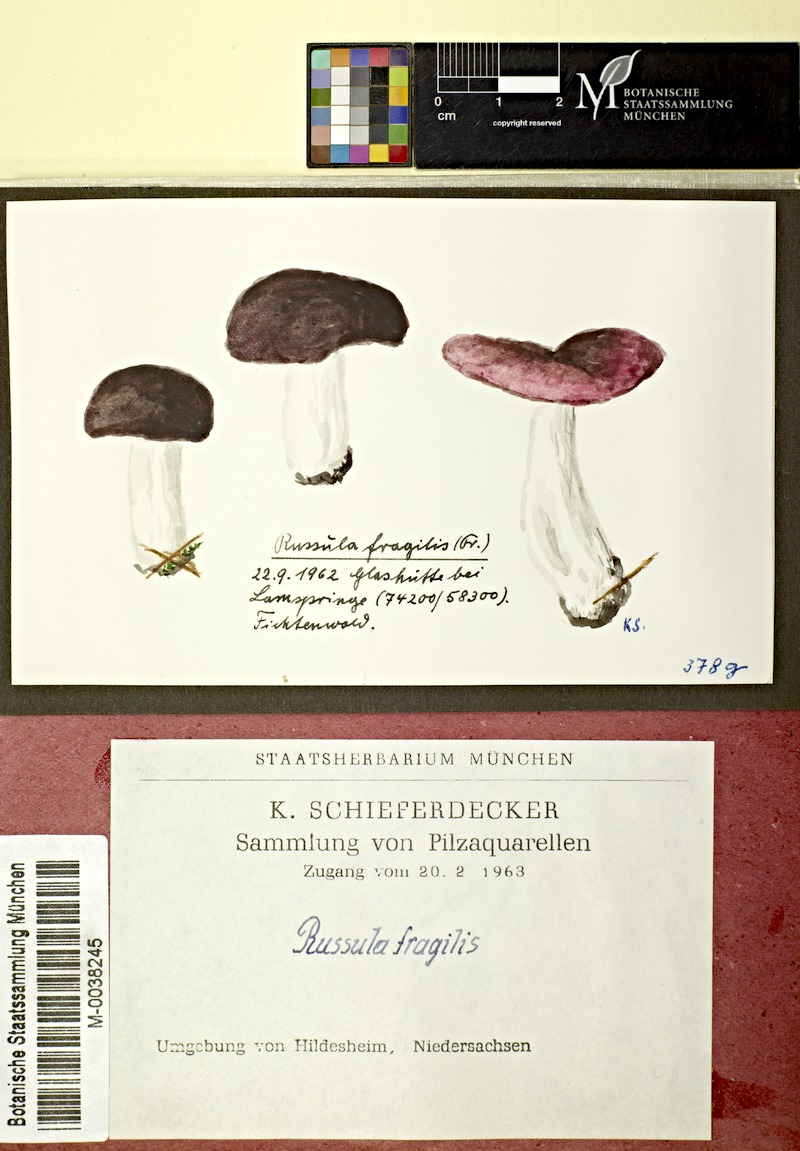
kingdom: Fungi
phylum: Basidiomycota
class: Agaricomycetes
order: Russulales
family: Russulaceae
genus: Russula
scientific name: Russula fragilis
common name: Fragile brittlegill
